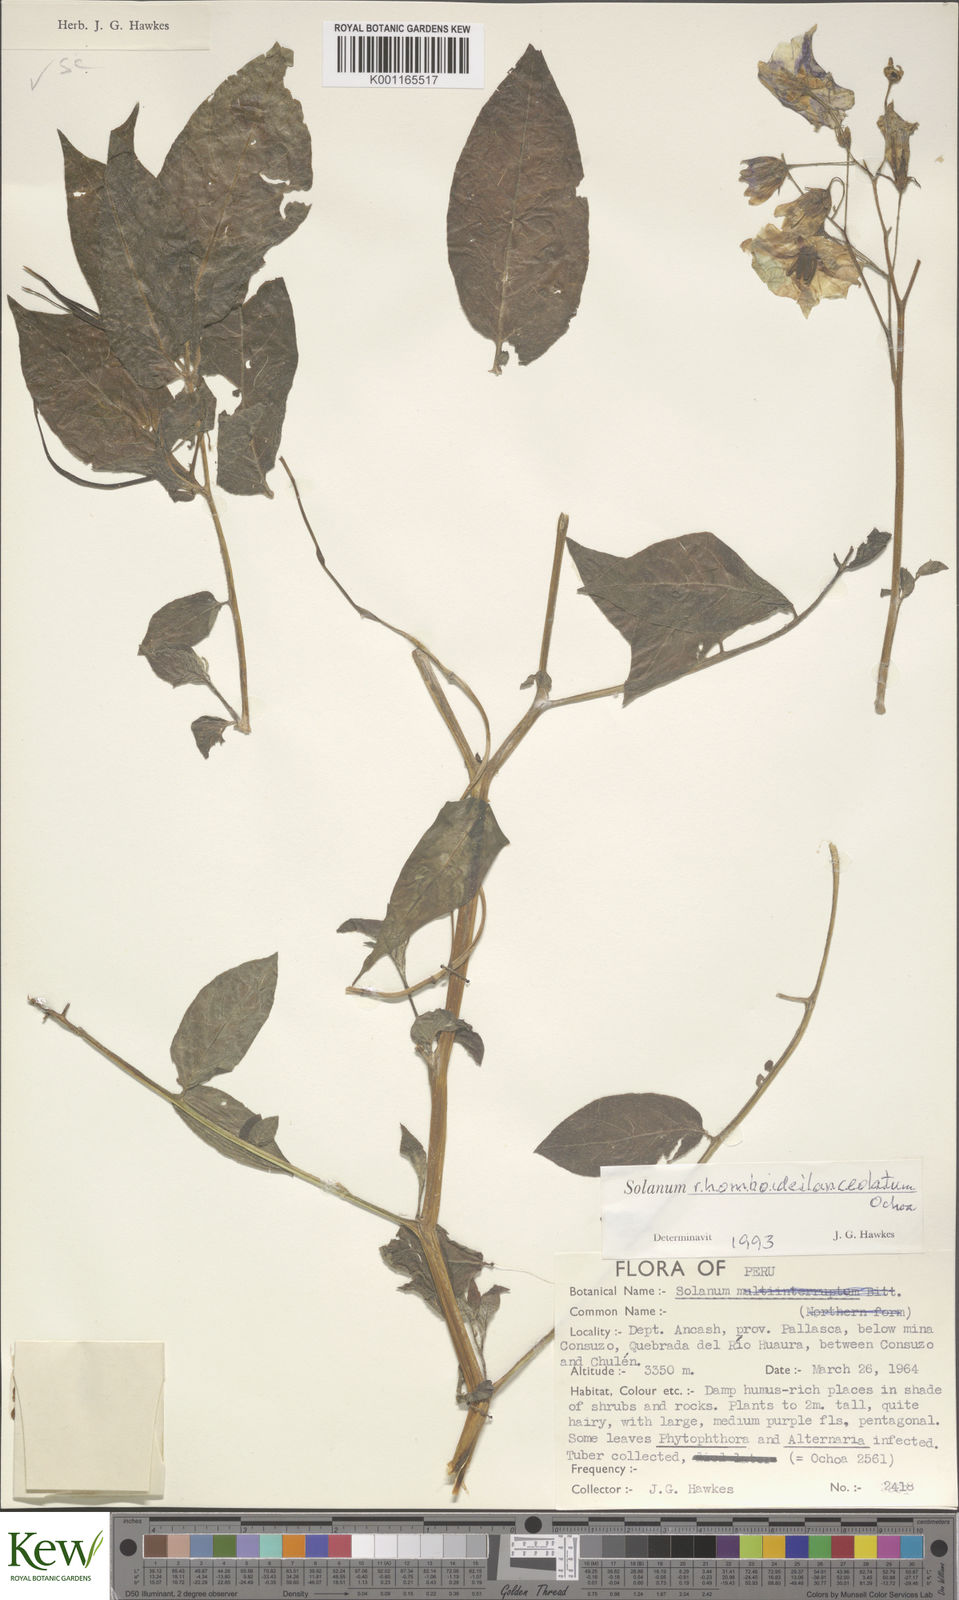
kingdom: Plantae
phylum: Tracheophyta
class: Magnoliopsida
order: Solanales
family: Solanaceae
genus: Solanum
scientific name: Solanum rhomboideilanceolatum
